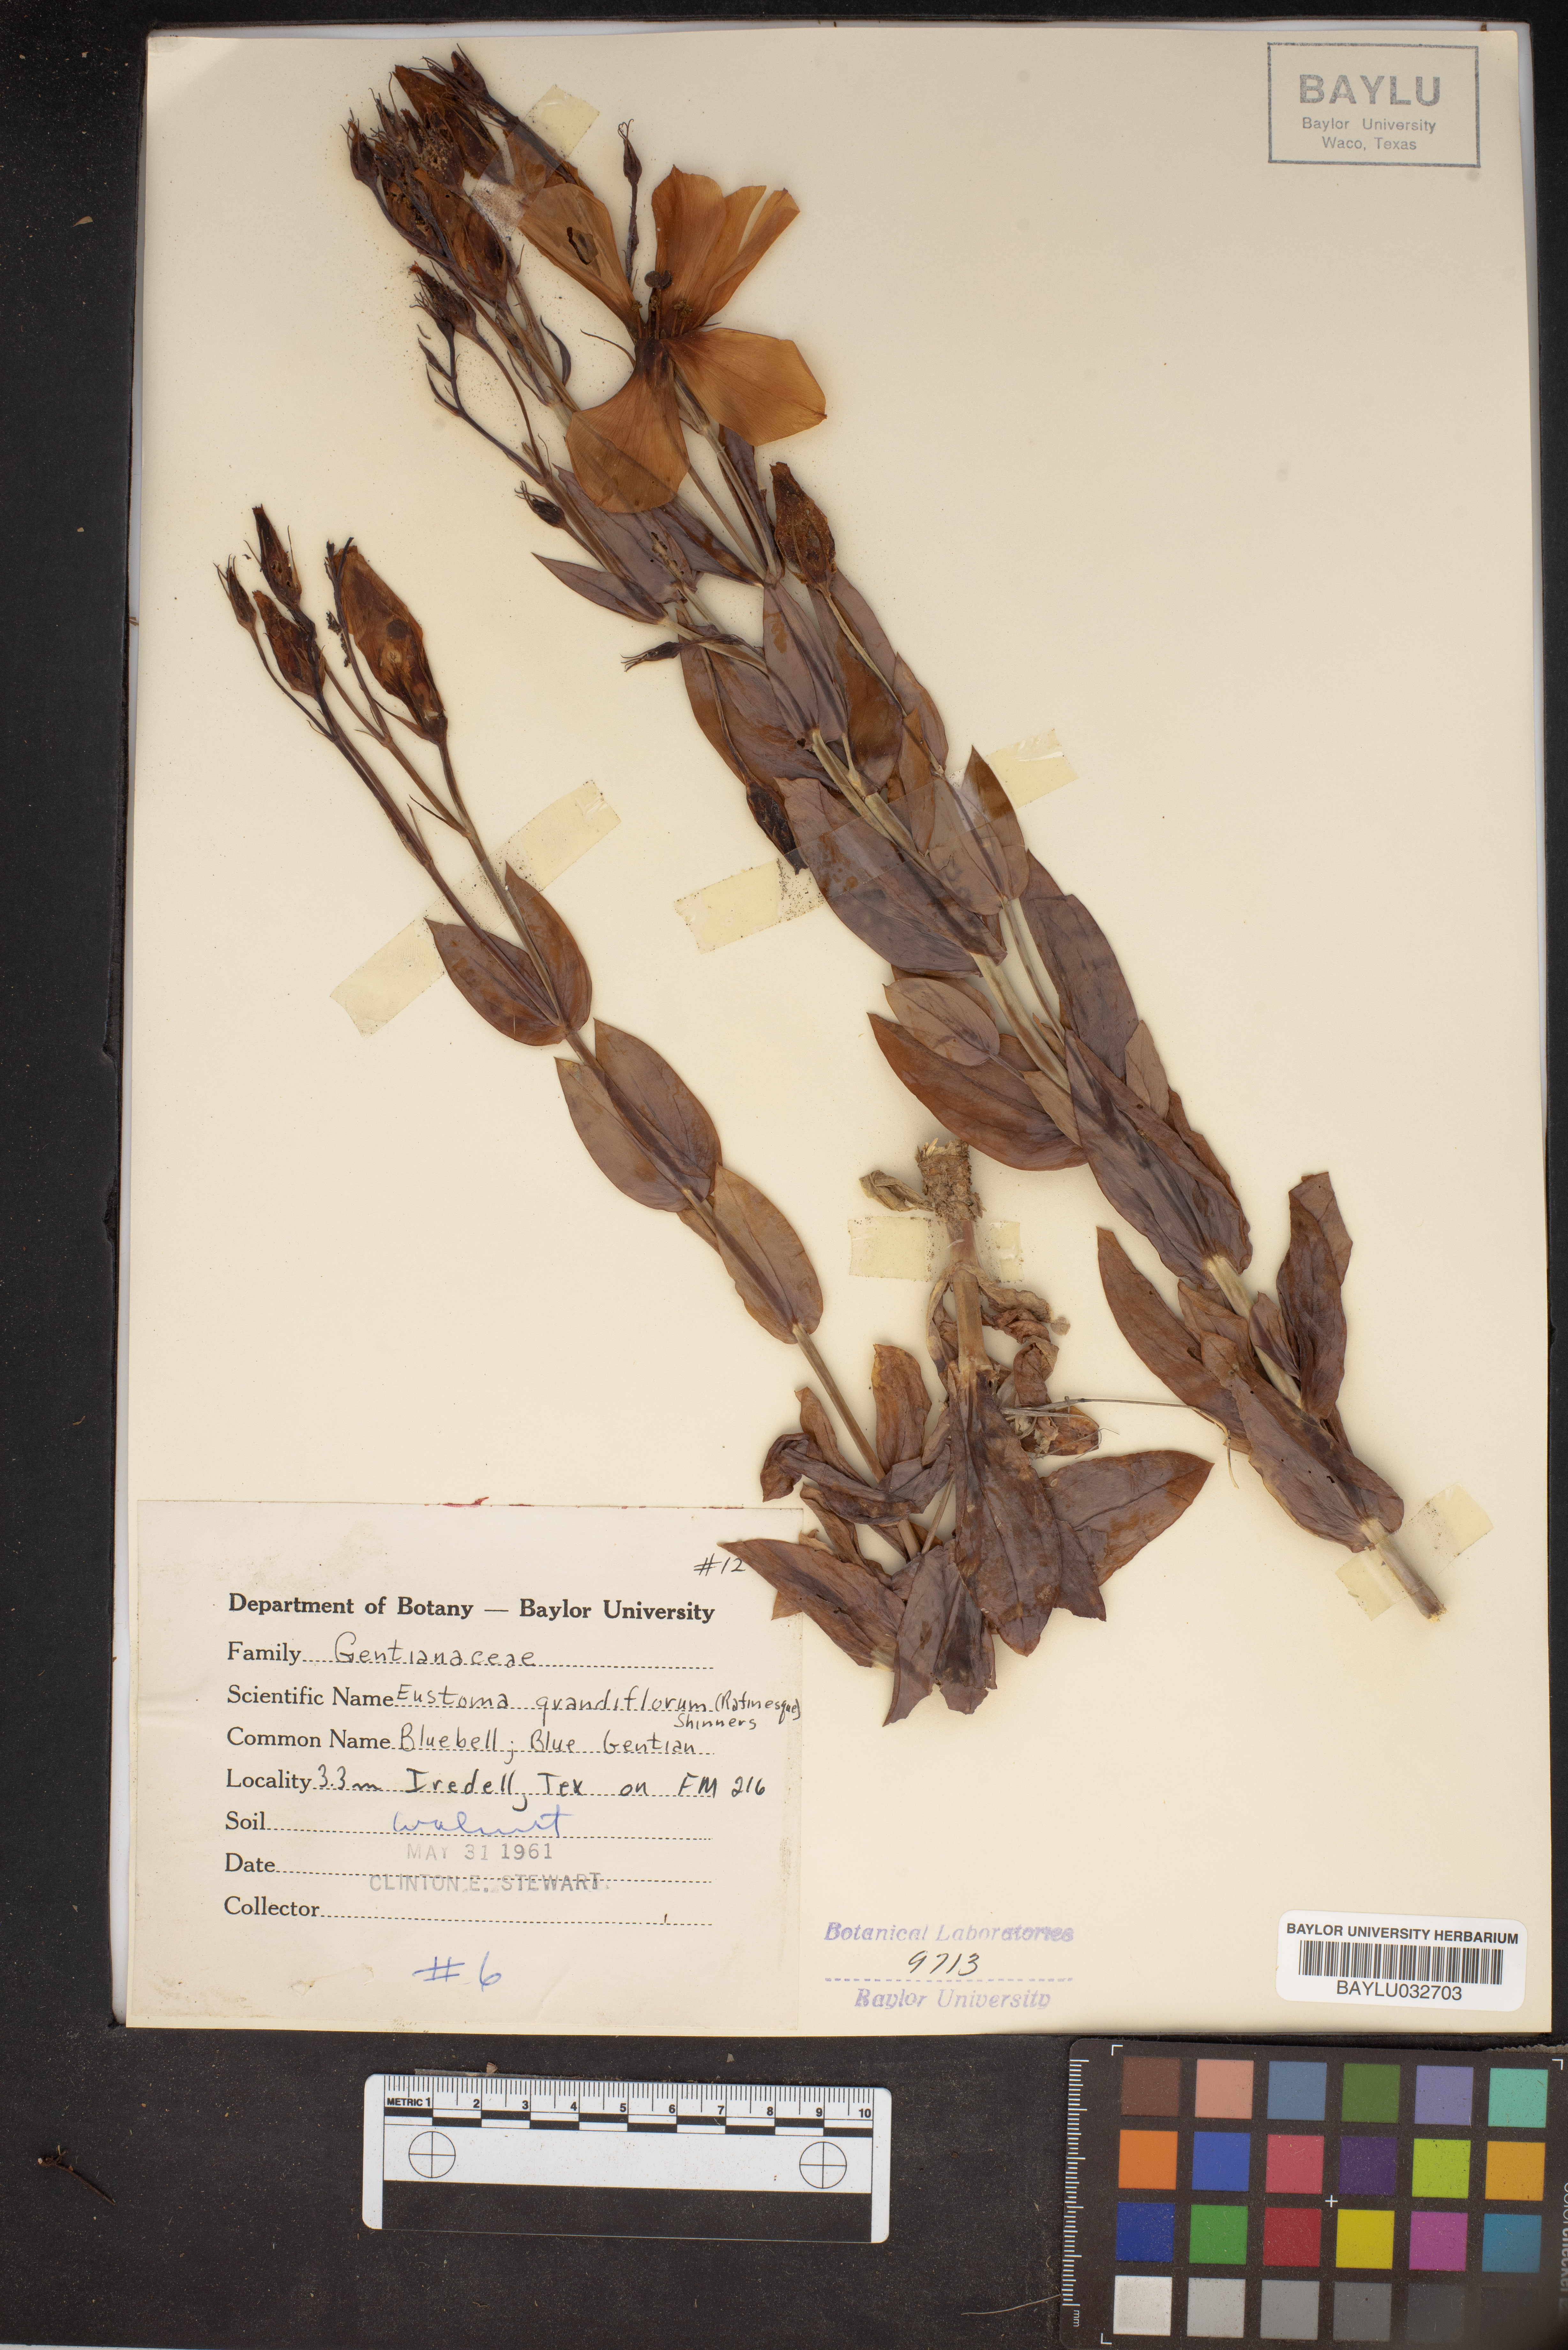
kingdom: Plantae
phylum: Tracheophyta
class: Magnoliopsida
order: Gentianales
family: Gentianaceae
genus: Eustoma
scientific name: Eustoma russellianum
